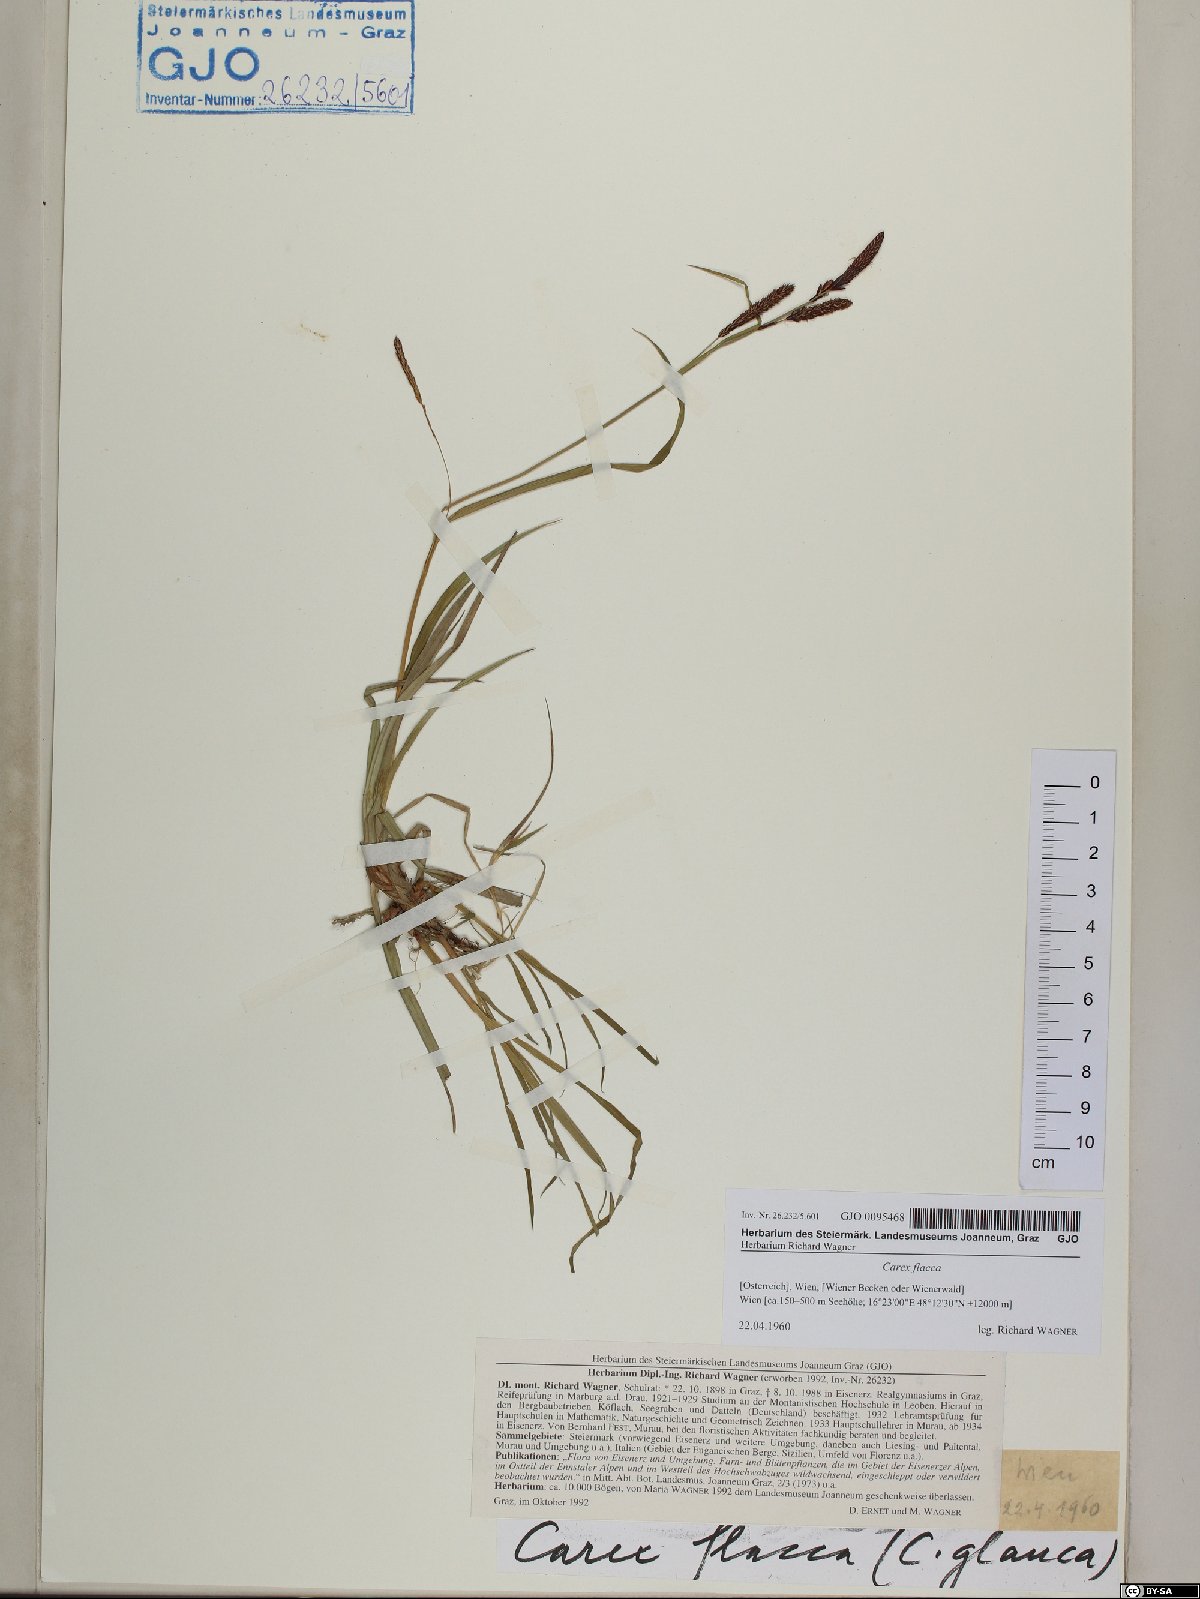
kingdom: Plantae
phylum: Tracheophyta
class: Liliopsida
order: Poales
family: Cyperaceae
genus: Carex
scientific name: Carex flacca
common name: Glaucous sedge
